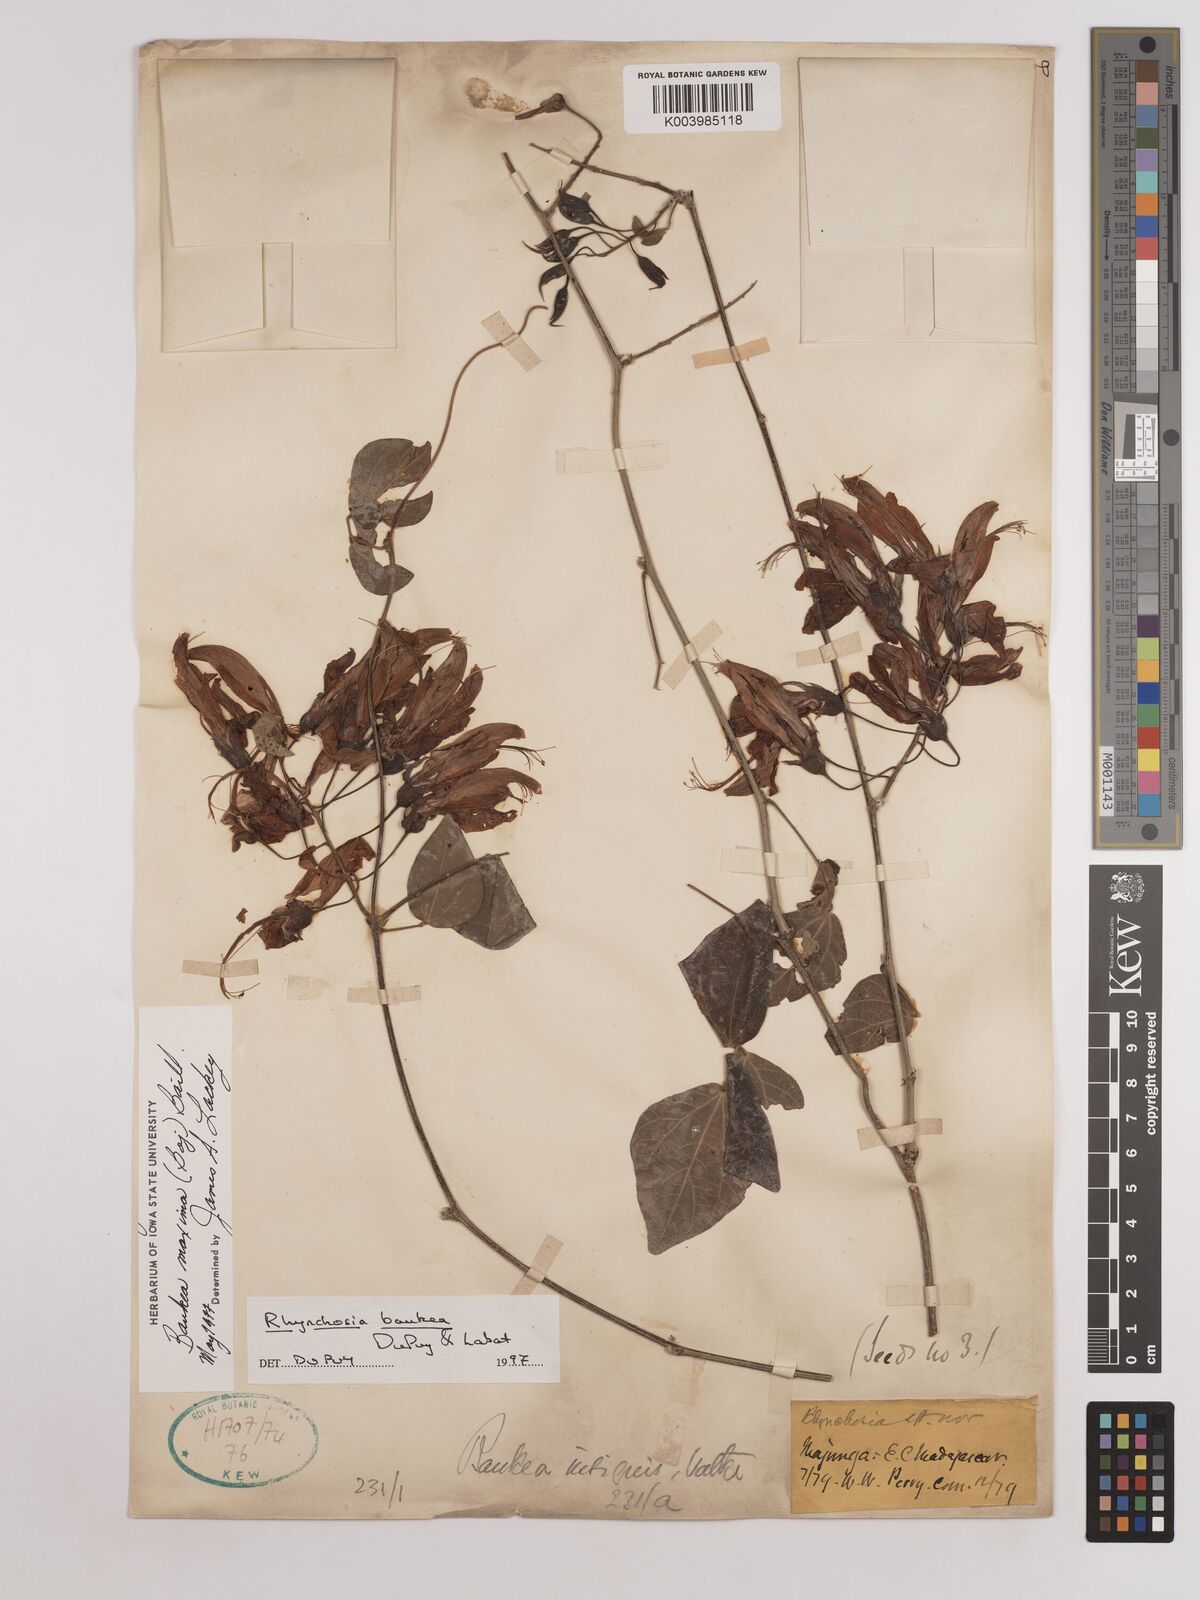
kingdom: Plantae
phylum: Tracheophyta
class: Magnoliopsida
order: Fabales
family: Fabaceae
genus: Rhynchosia
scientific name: Rhynchosia caribaea
